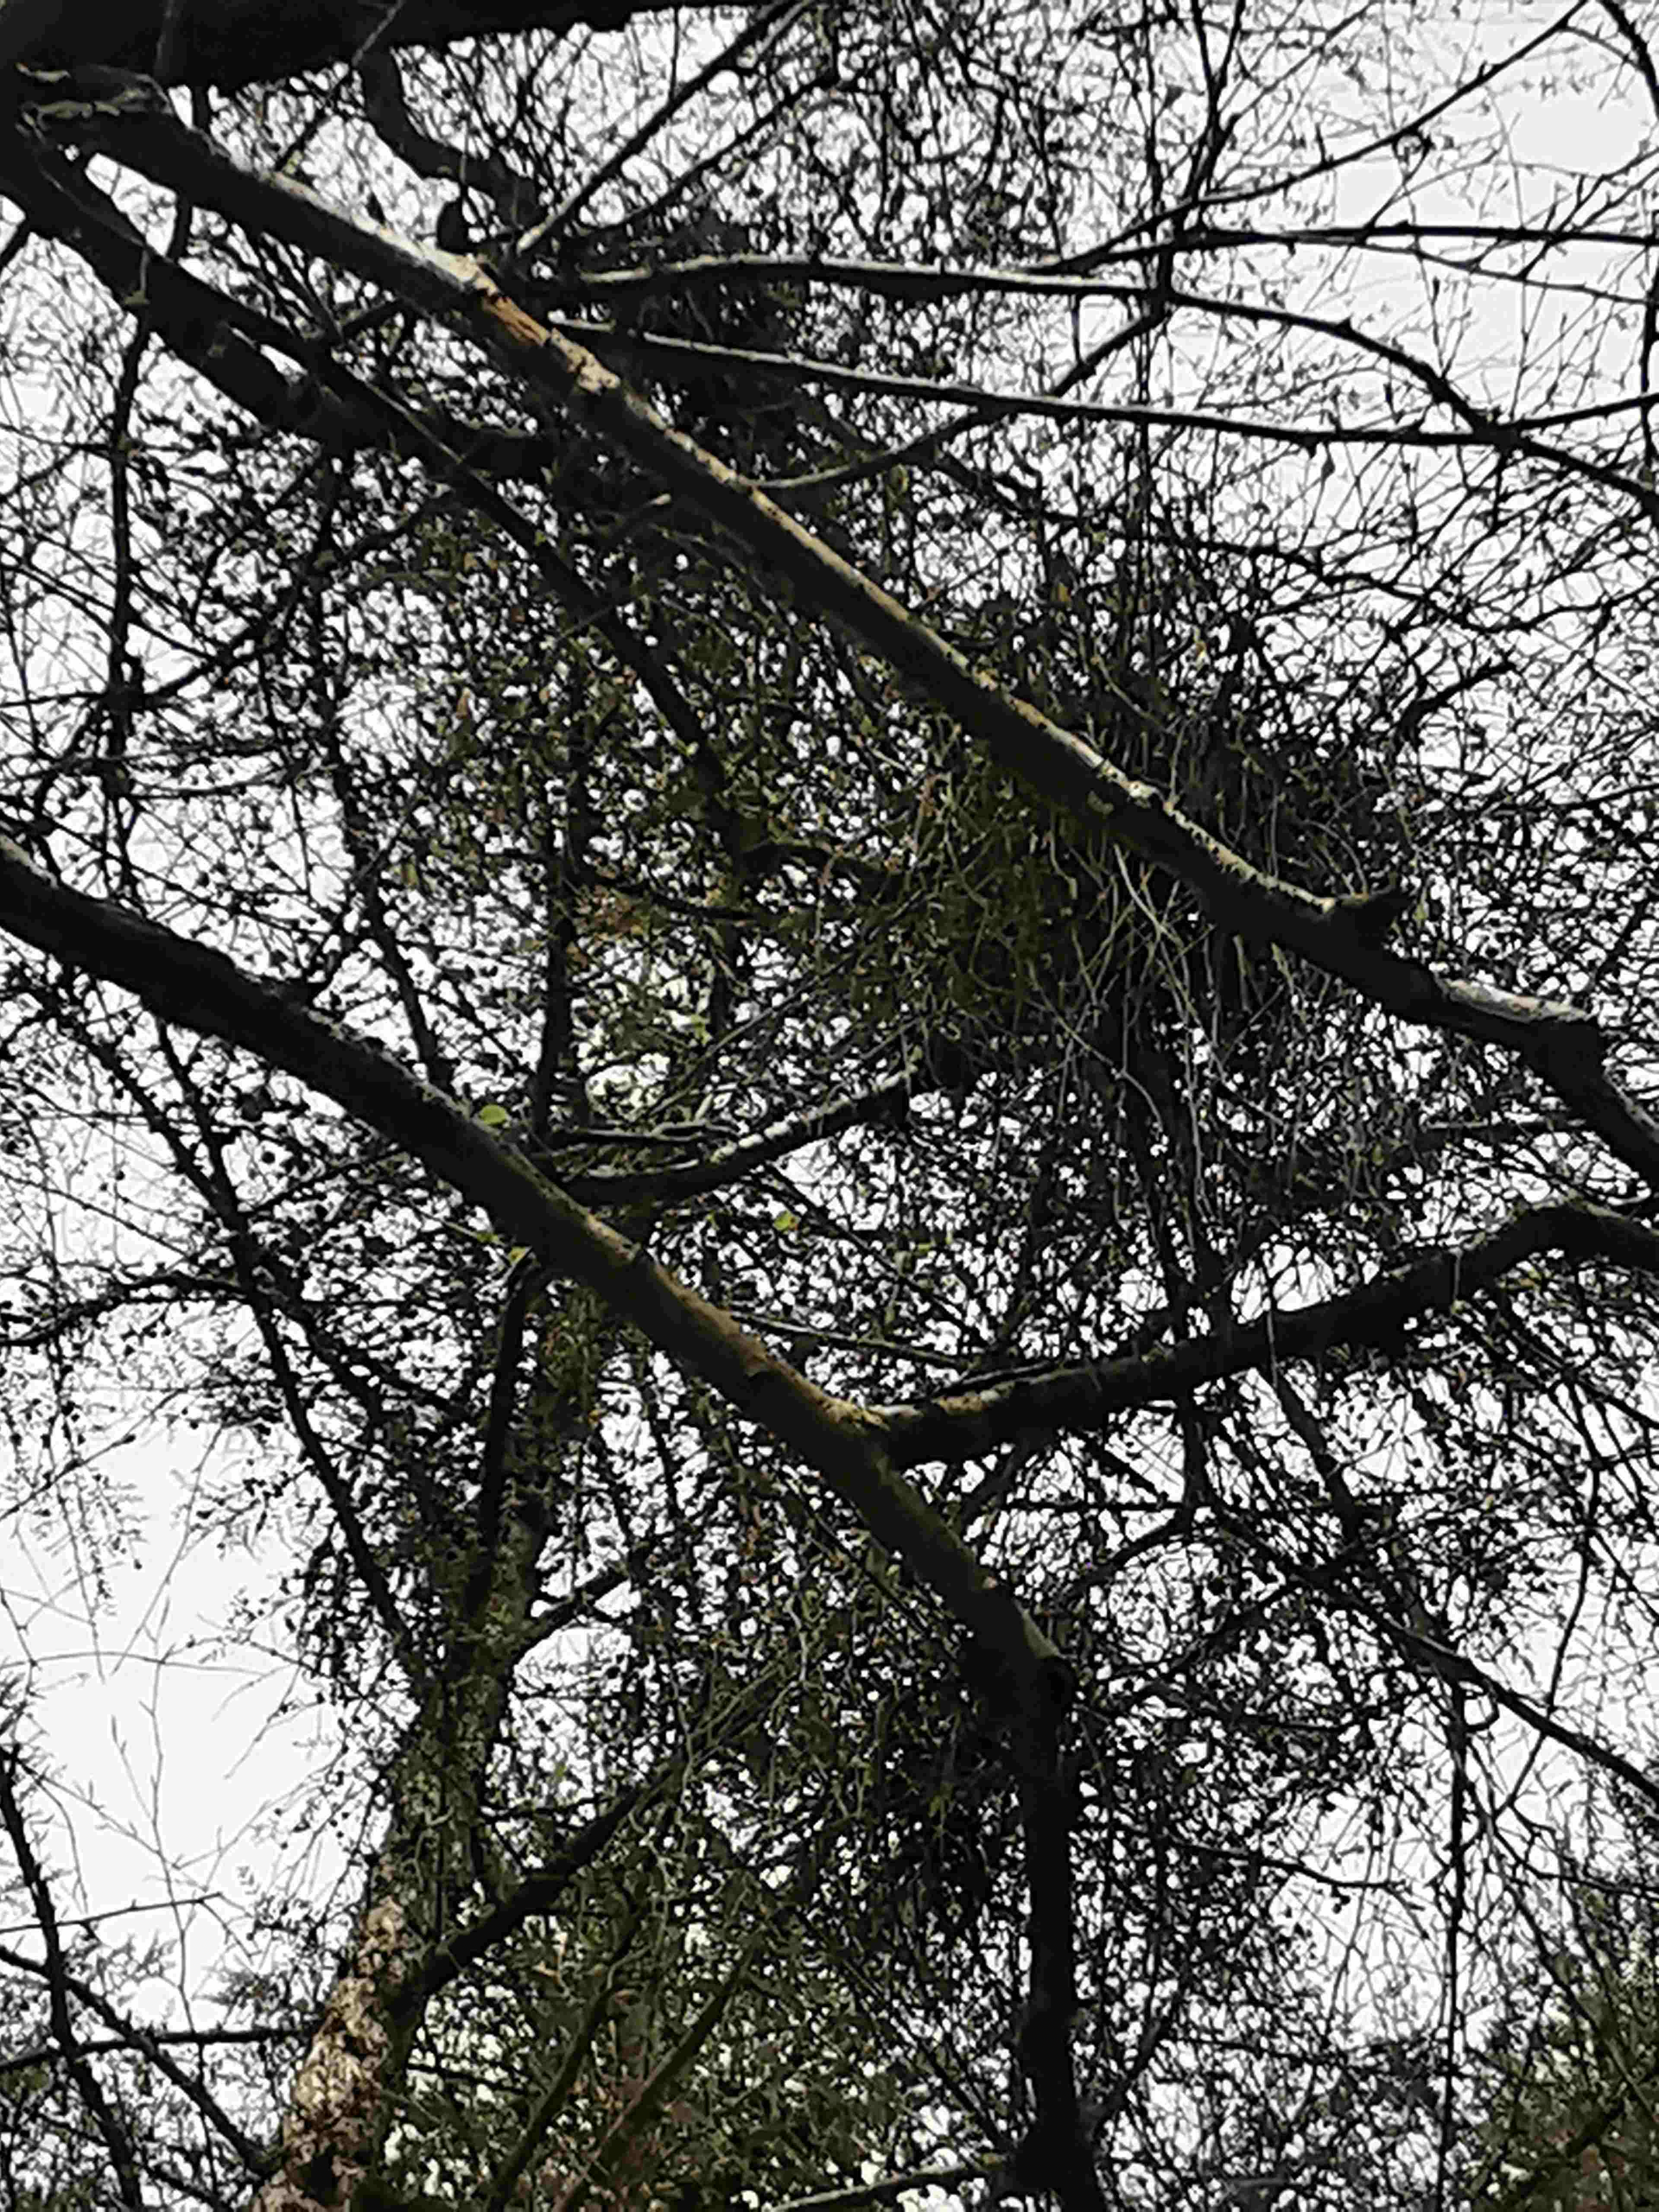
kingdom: Fungi
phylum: Ascomycota
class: Taphrinomycetes
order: Taphrinales
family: Taphrinaceae
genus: Taphrina
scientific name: Taphrina betulina
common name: hekse-sækdug
